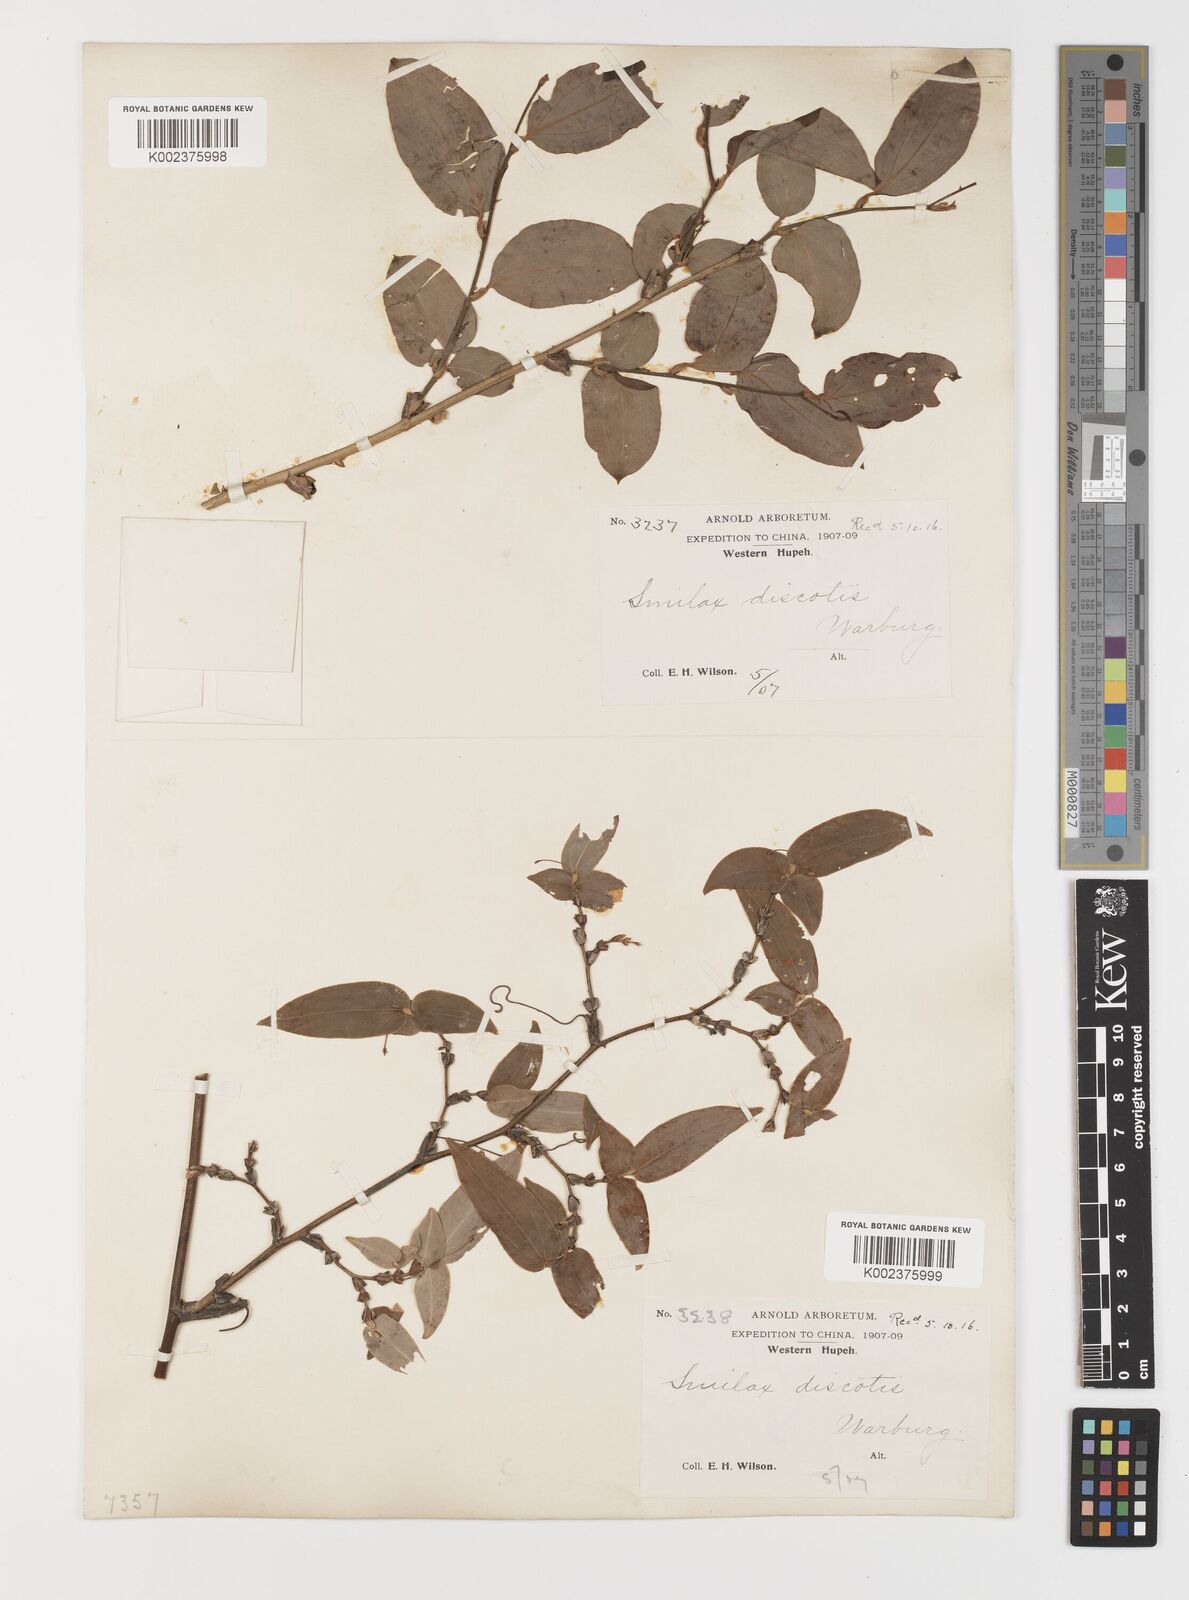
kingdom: Plantae
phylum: Tracheophyta
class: Liliopsida
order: Liliales
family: Smilacaceae
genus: Smilax
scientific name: Smilax discotis
